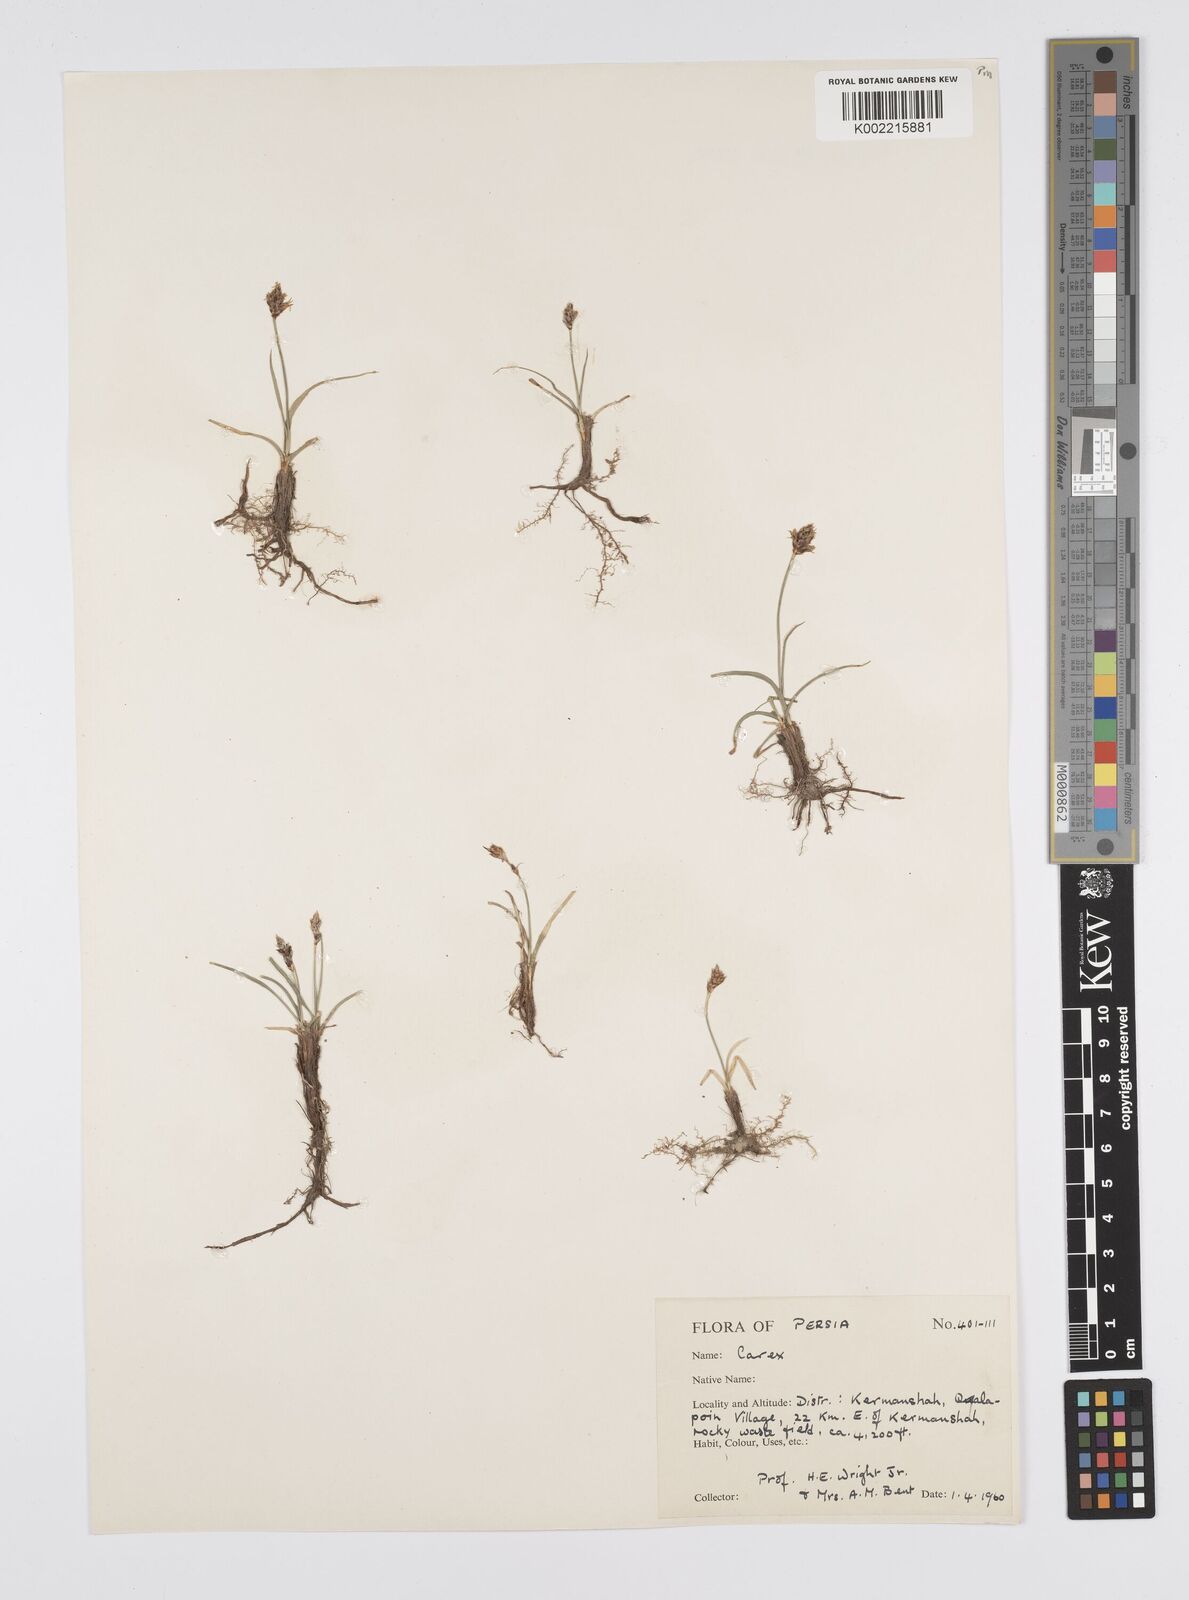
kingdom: Plantae
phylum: Tracheophyta
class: Liliopsida
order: Poales
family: Cyperaceae
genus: Carex
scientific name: Carex pseudofoetida
